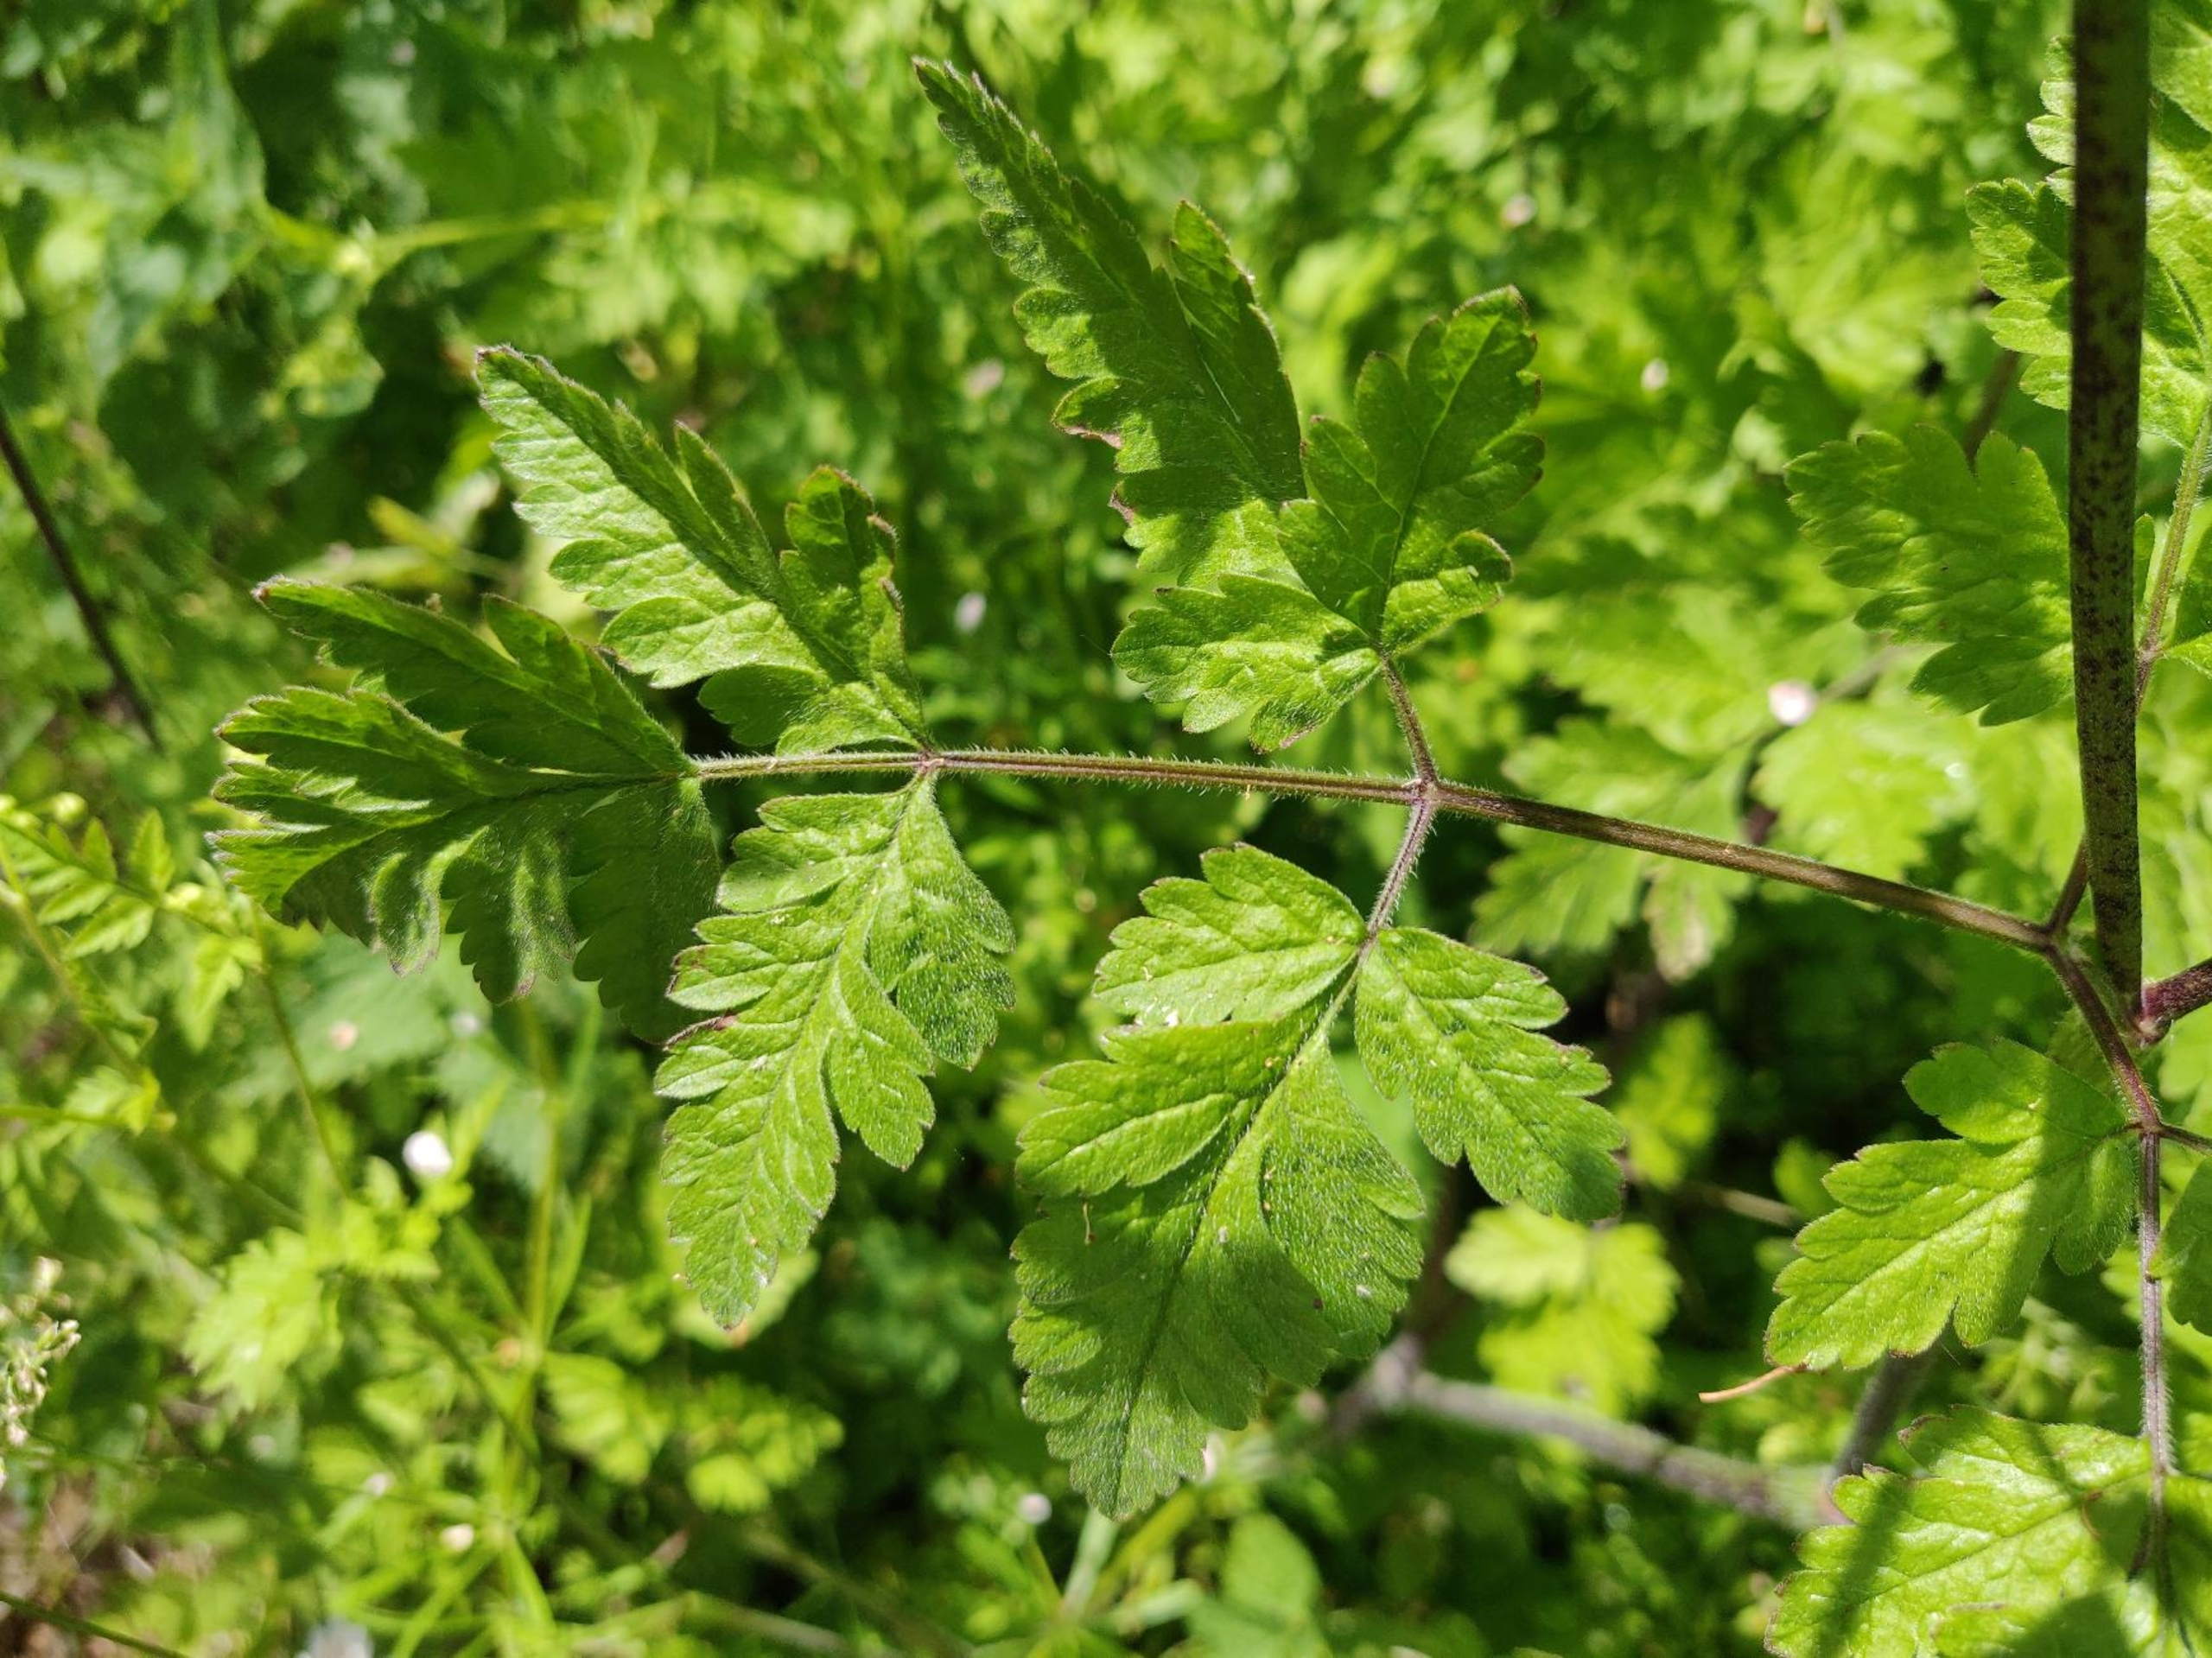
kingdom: Plantae
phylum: Tracheophyta
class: Magnoliopsida
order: Apiales
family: Apiaceae
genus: Chaerophyllum
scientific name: Chaerophyllum temulum
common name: Almindelig hulsvøb
